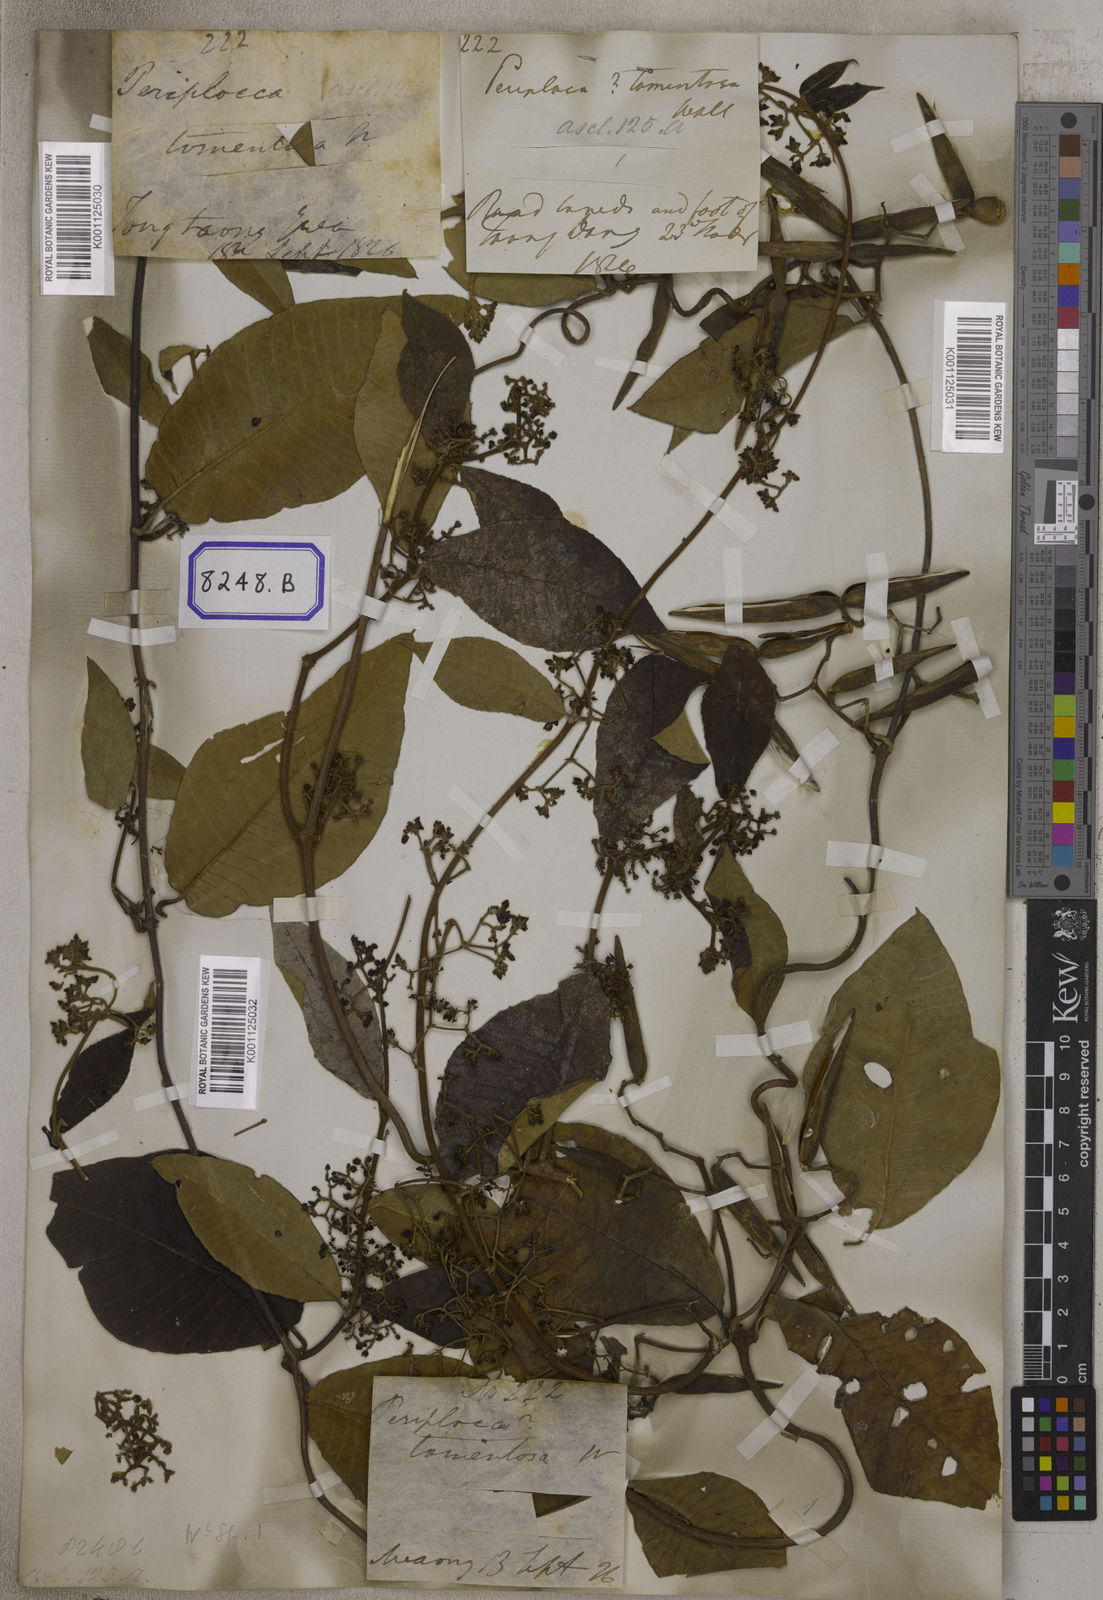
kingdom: Plantae
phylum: Tracheophyta
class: Magnoliopsida
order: Gentianales
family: Apocynaceae
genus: Streptocaulon
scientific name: Streptocaulon juventas
